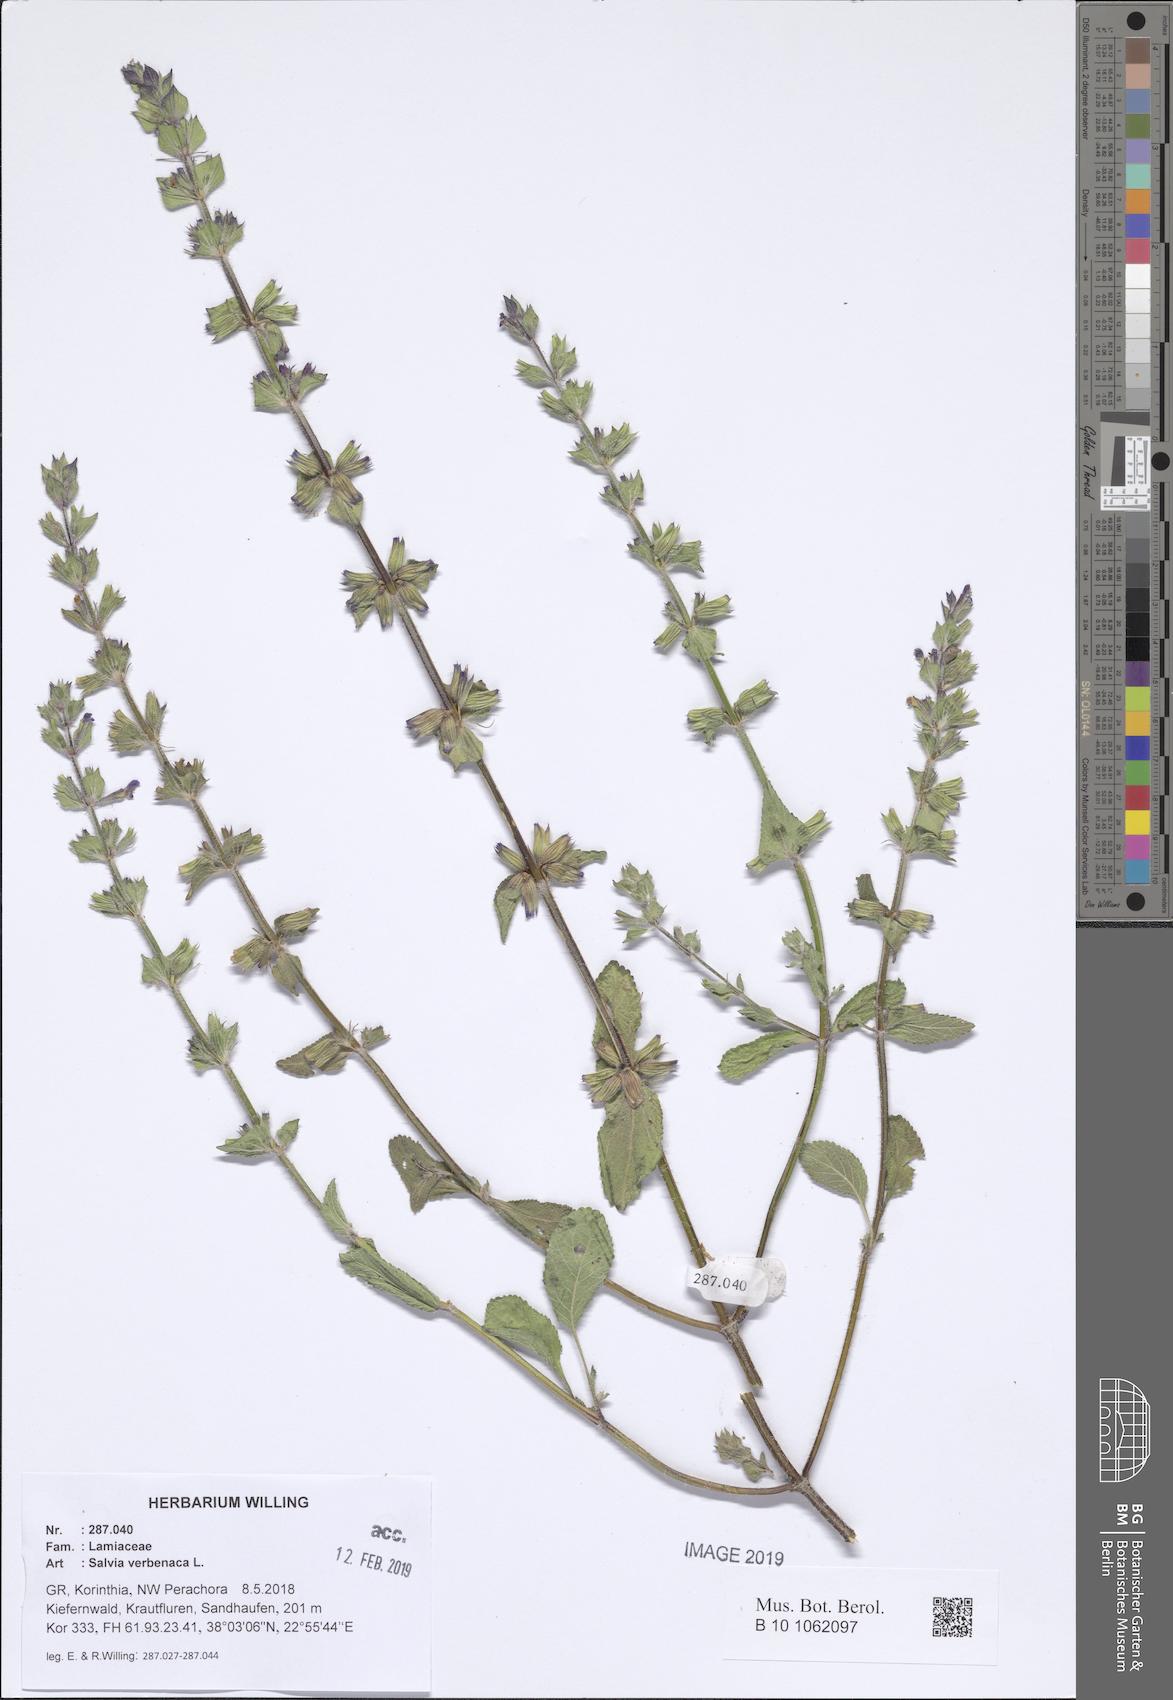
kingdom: Plantae
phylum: Tracheophyta
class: Magnoliopsida
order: Lamiales
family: Lamiaceae
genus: Salvia
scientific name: Salvia verbenaca
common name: Wild clary
